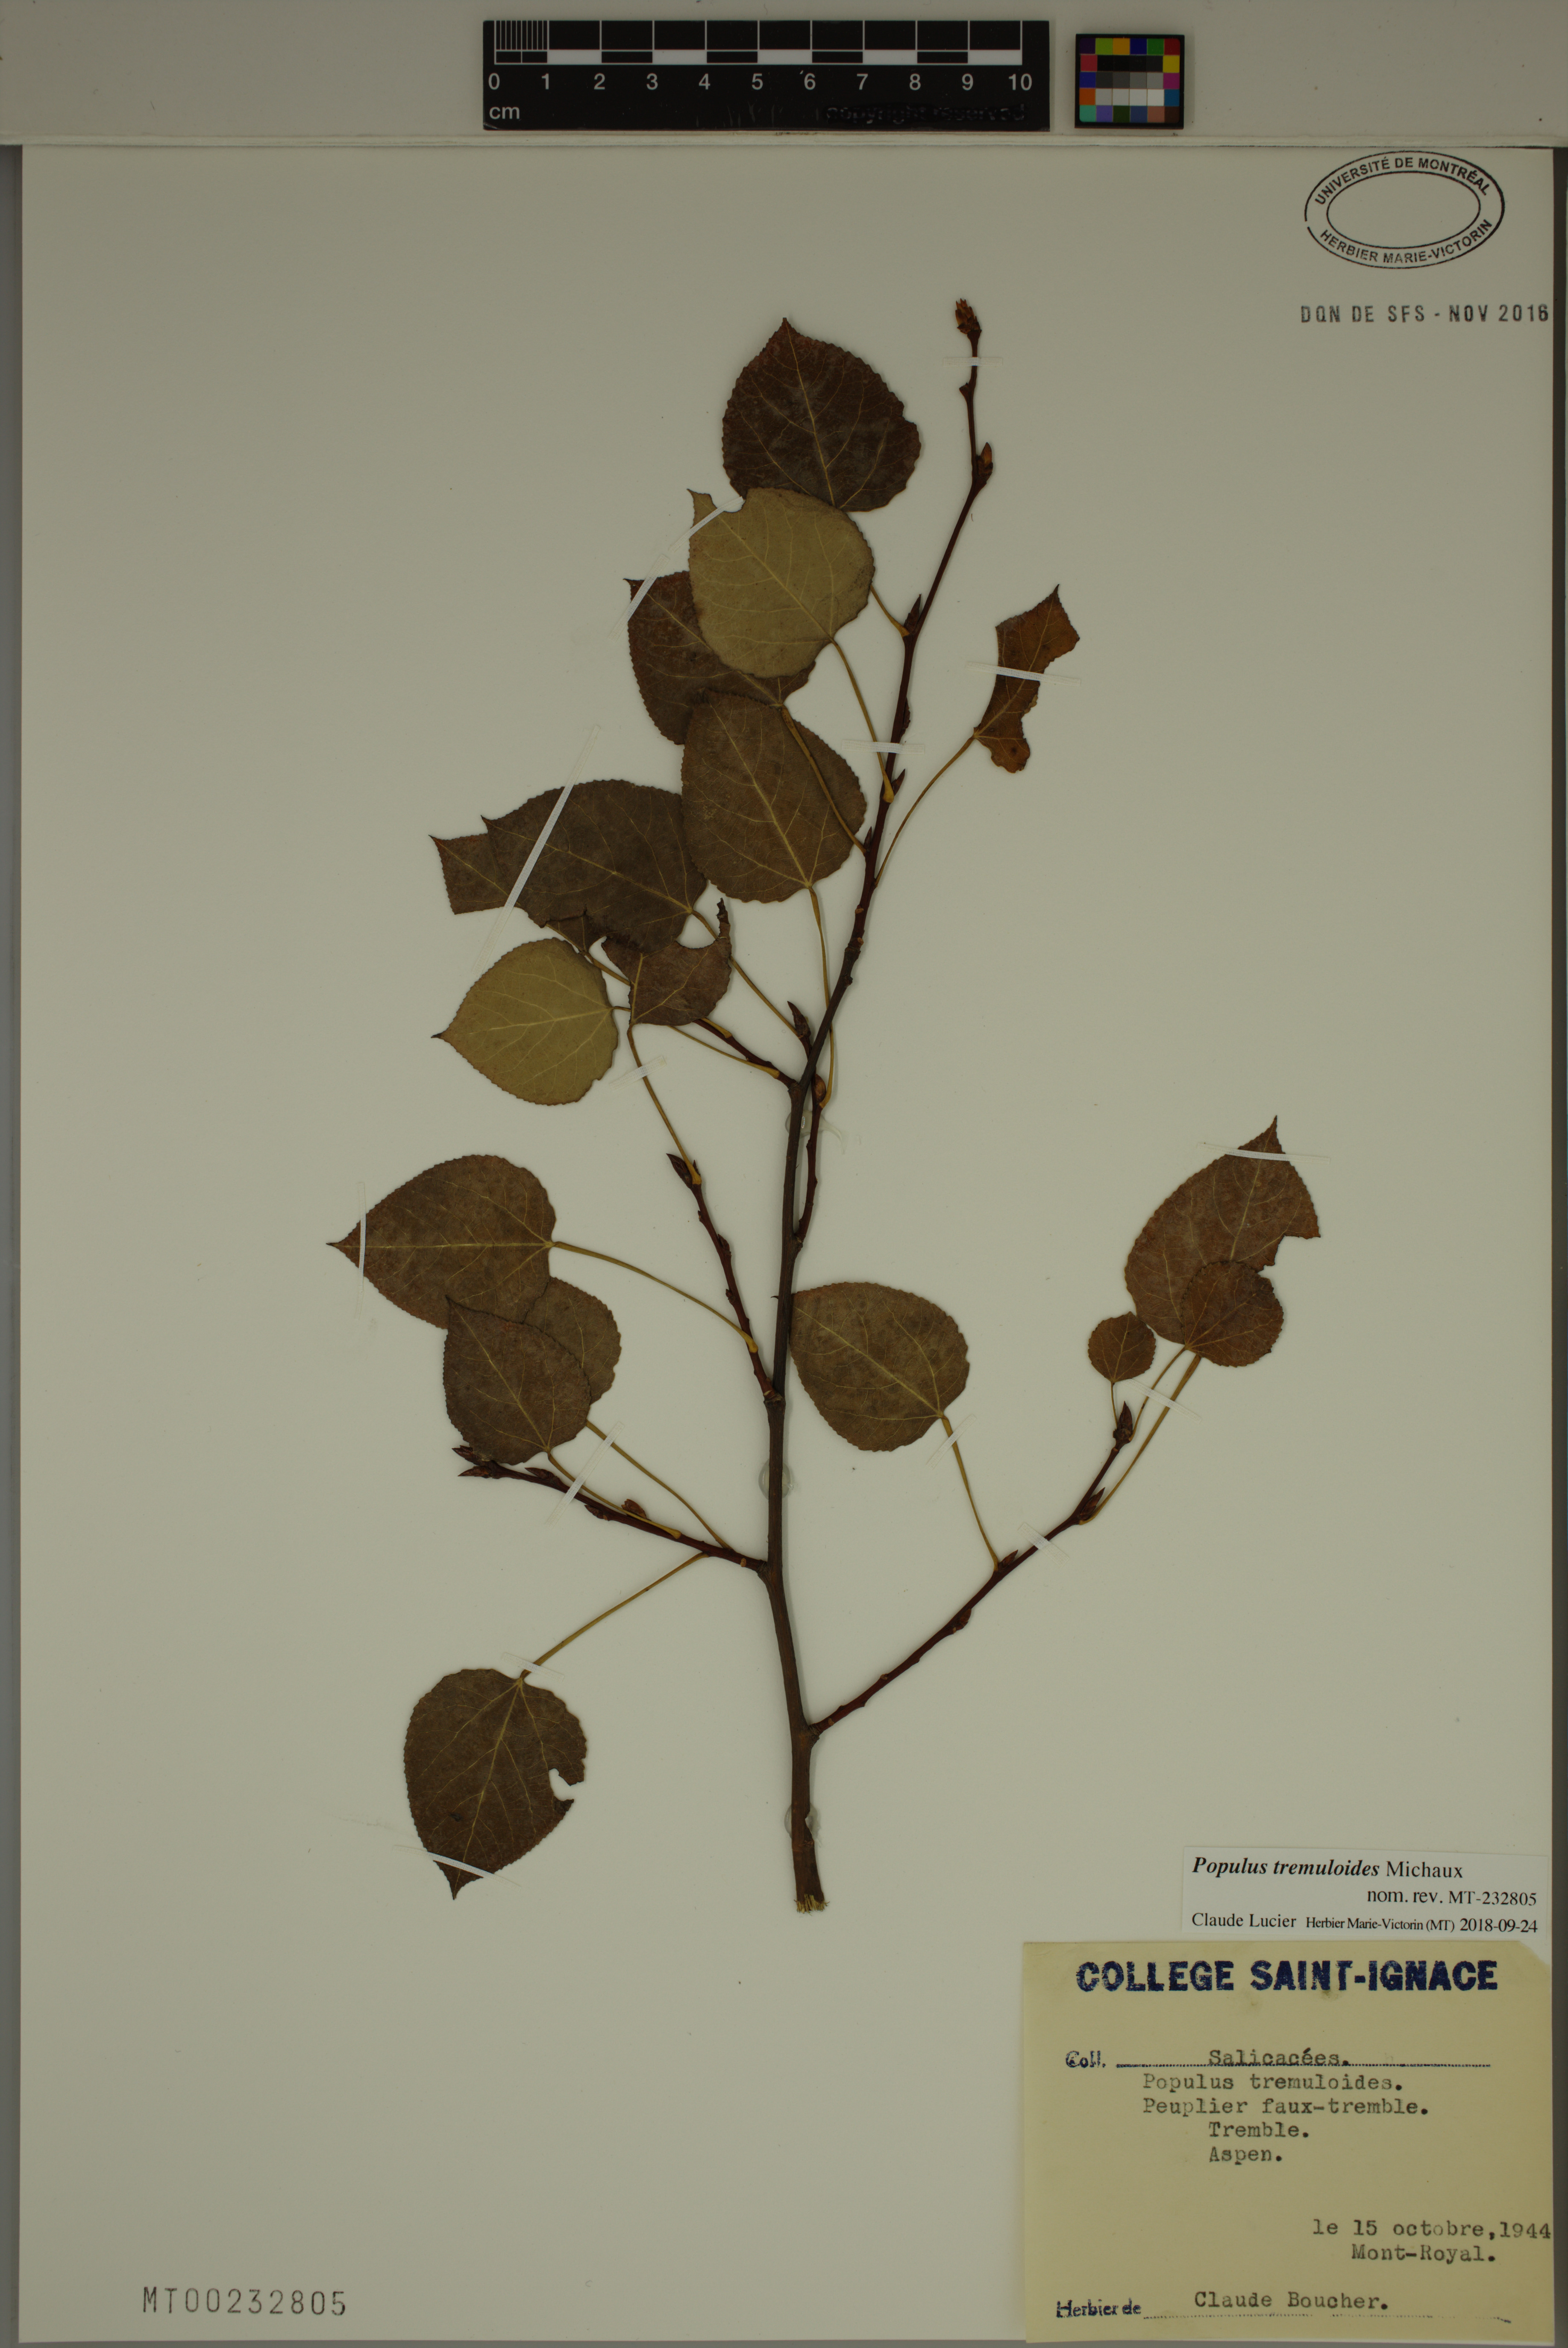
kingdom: Plantae
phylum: Tracheophyta
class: Magnoliopsida
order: Malpighiales
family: Salicaceae
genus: Populus
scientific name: Populus tremuloides
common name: Quaking aspen
